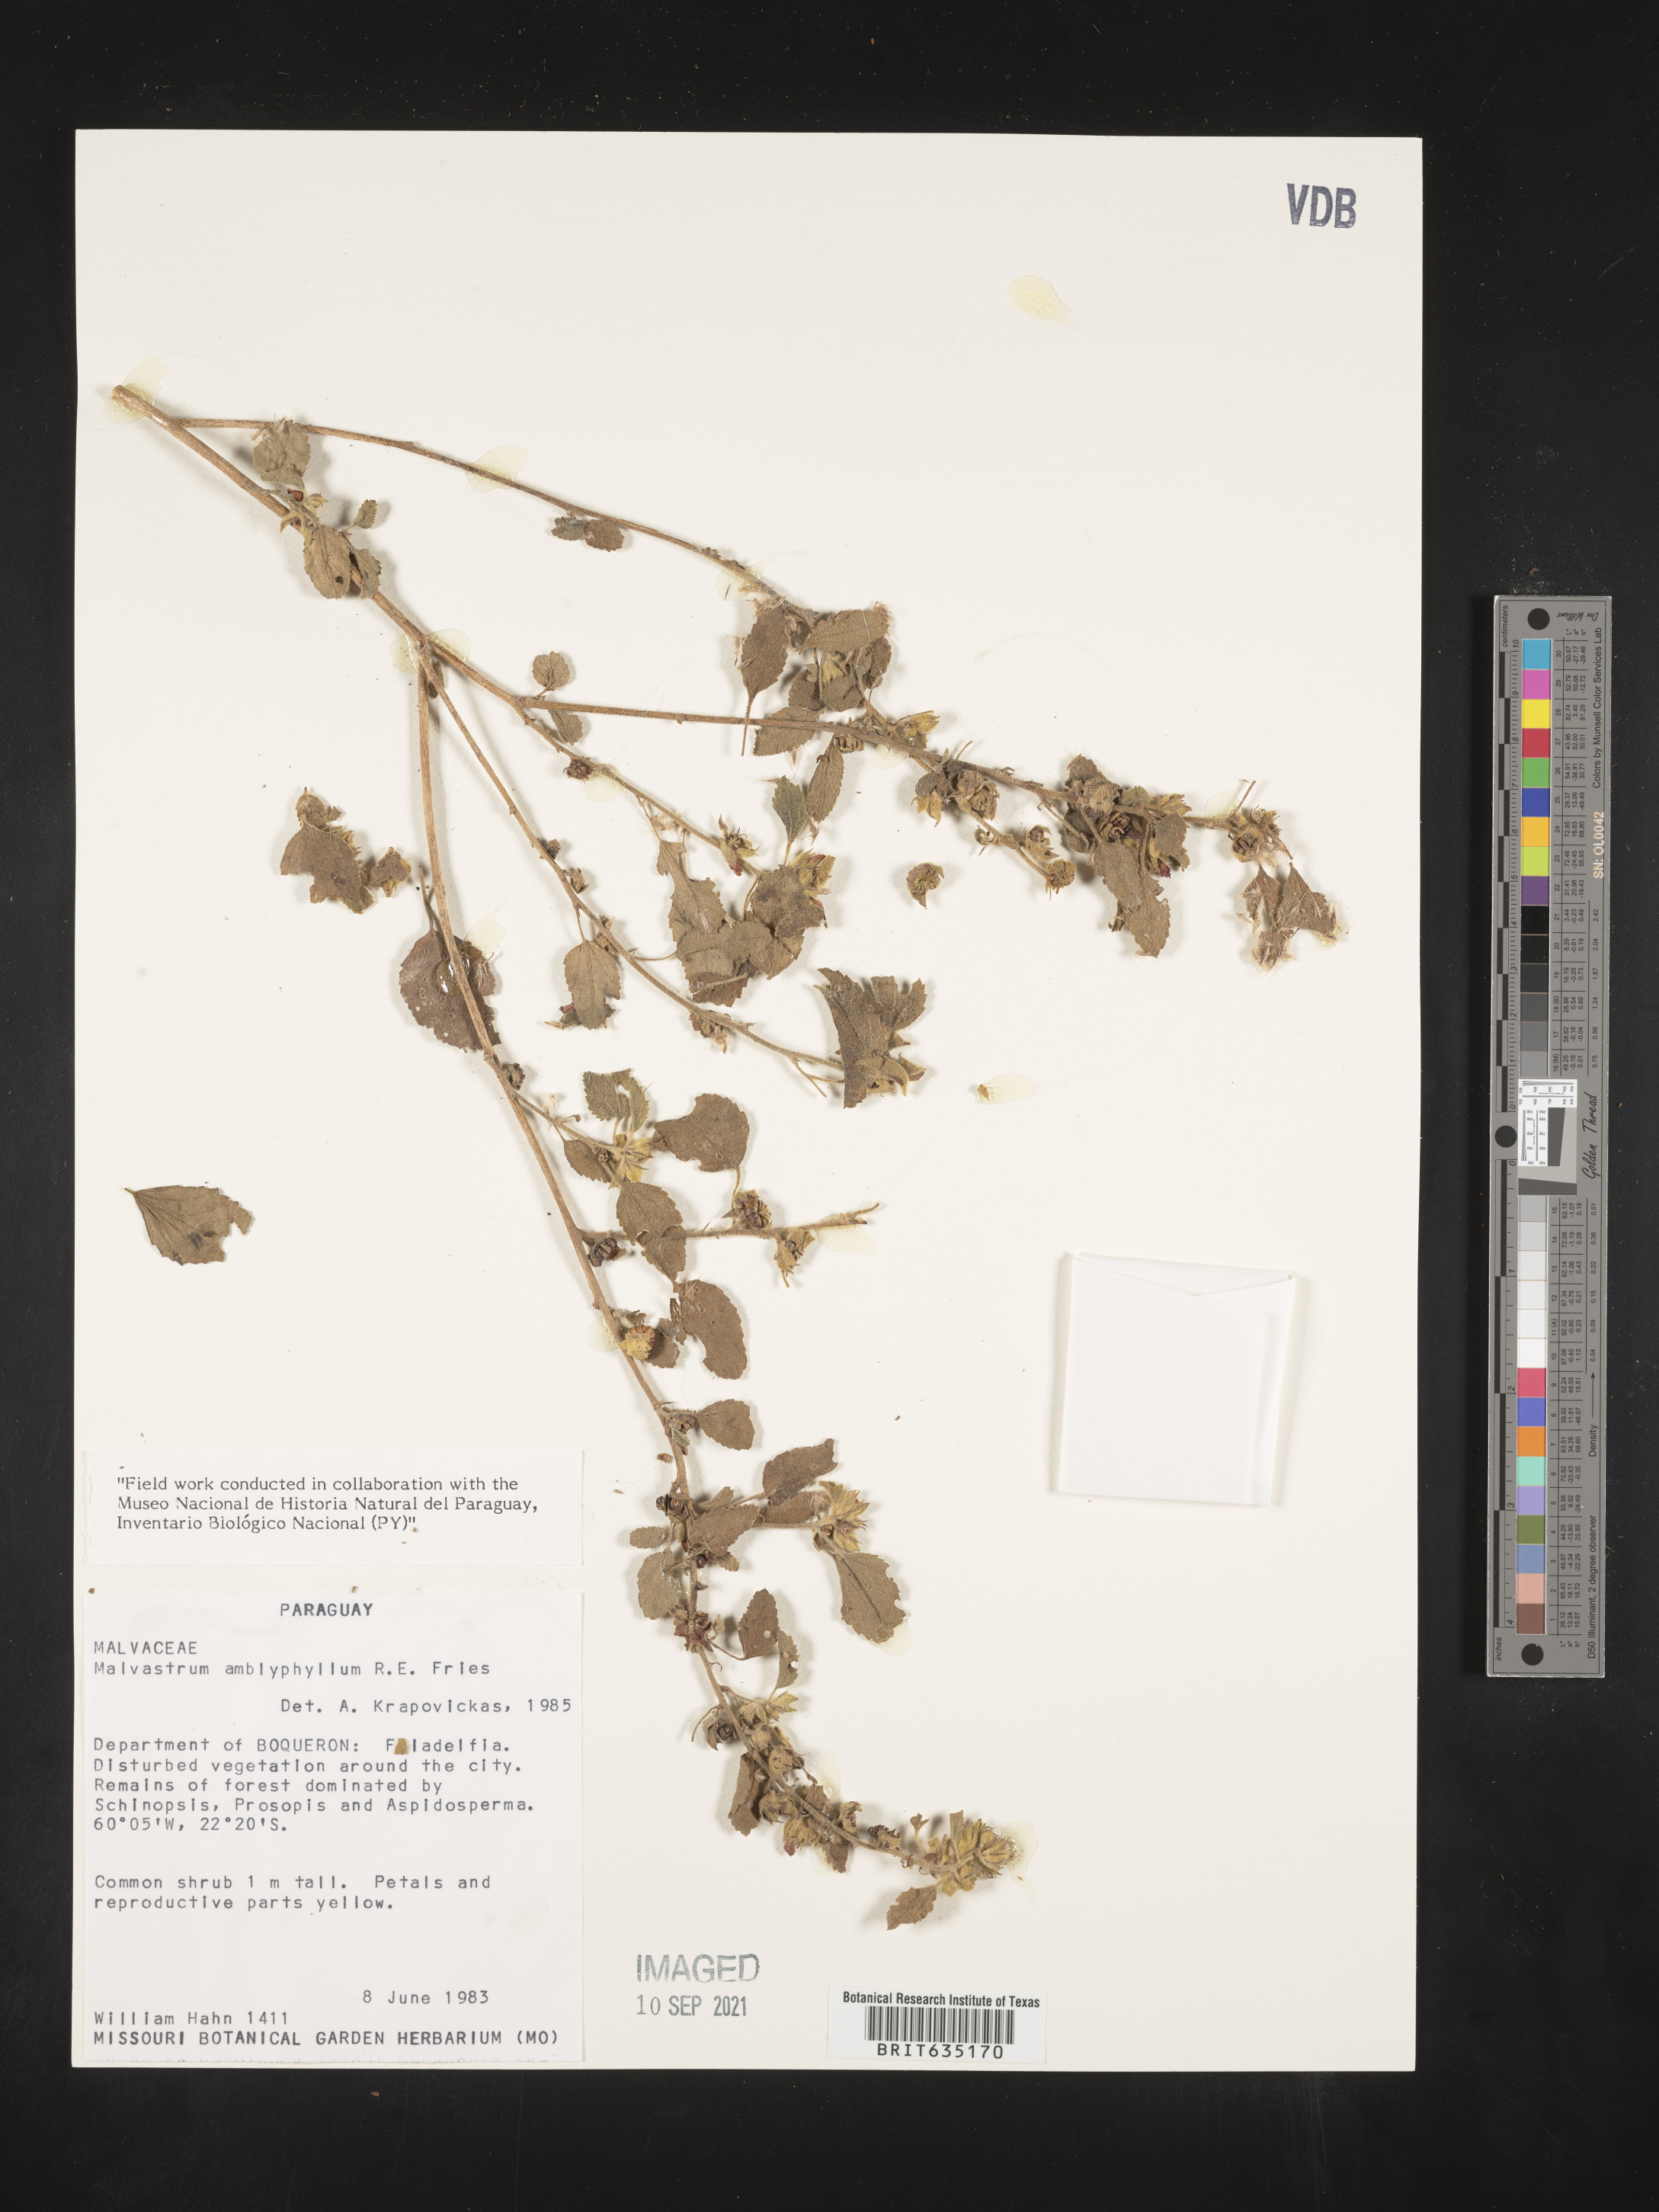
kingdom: Plantae
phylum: Tracheophyta
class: Magnoliopsida
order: Malvales
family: Malvaceae
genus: Malvastrum
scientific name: Malvastrum
